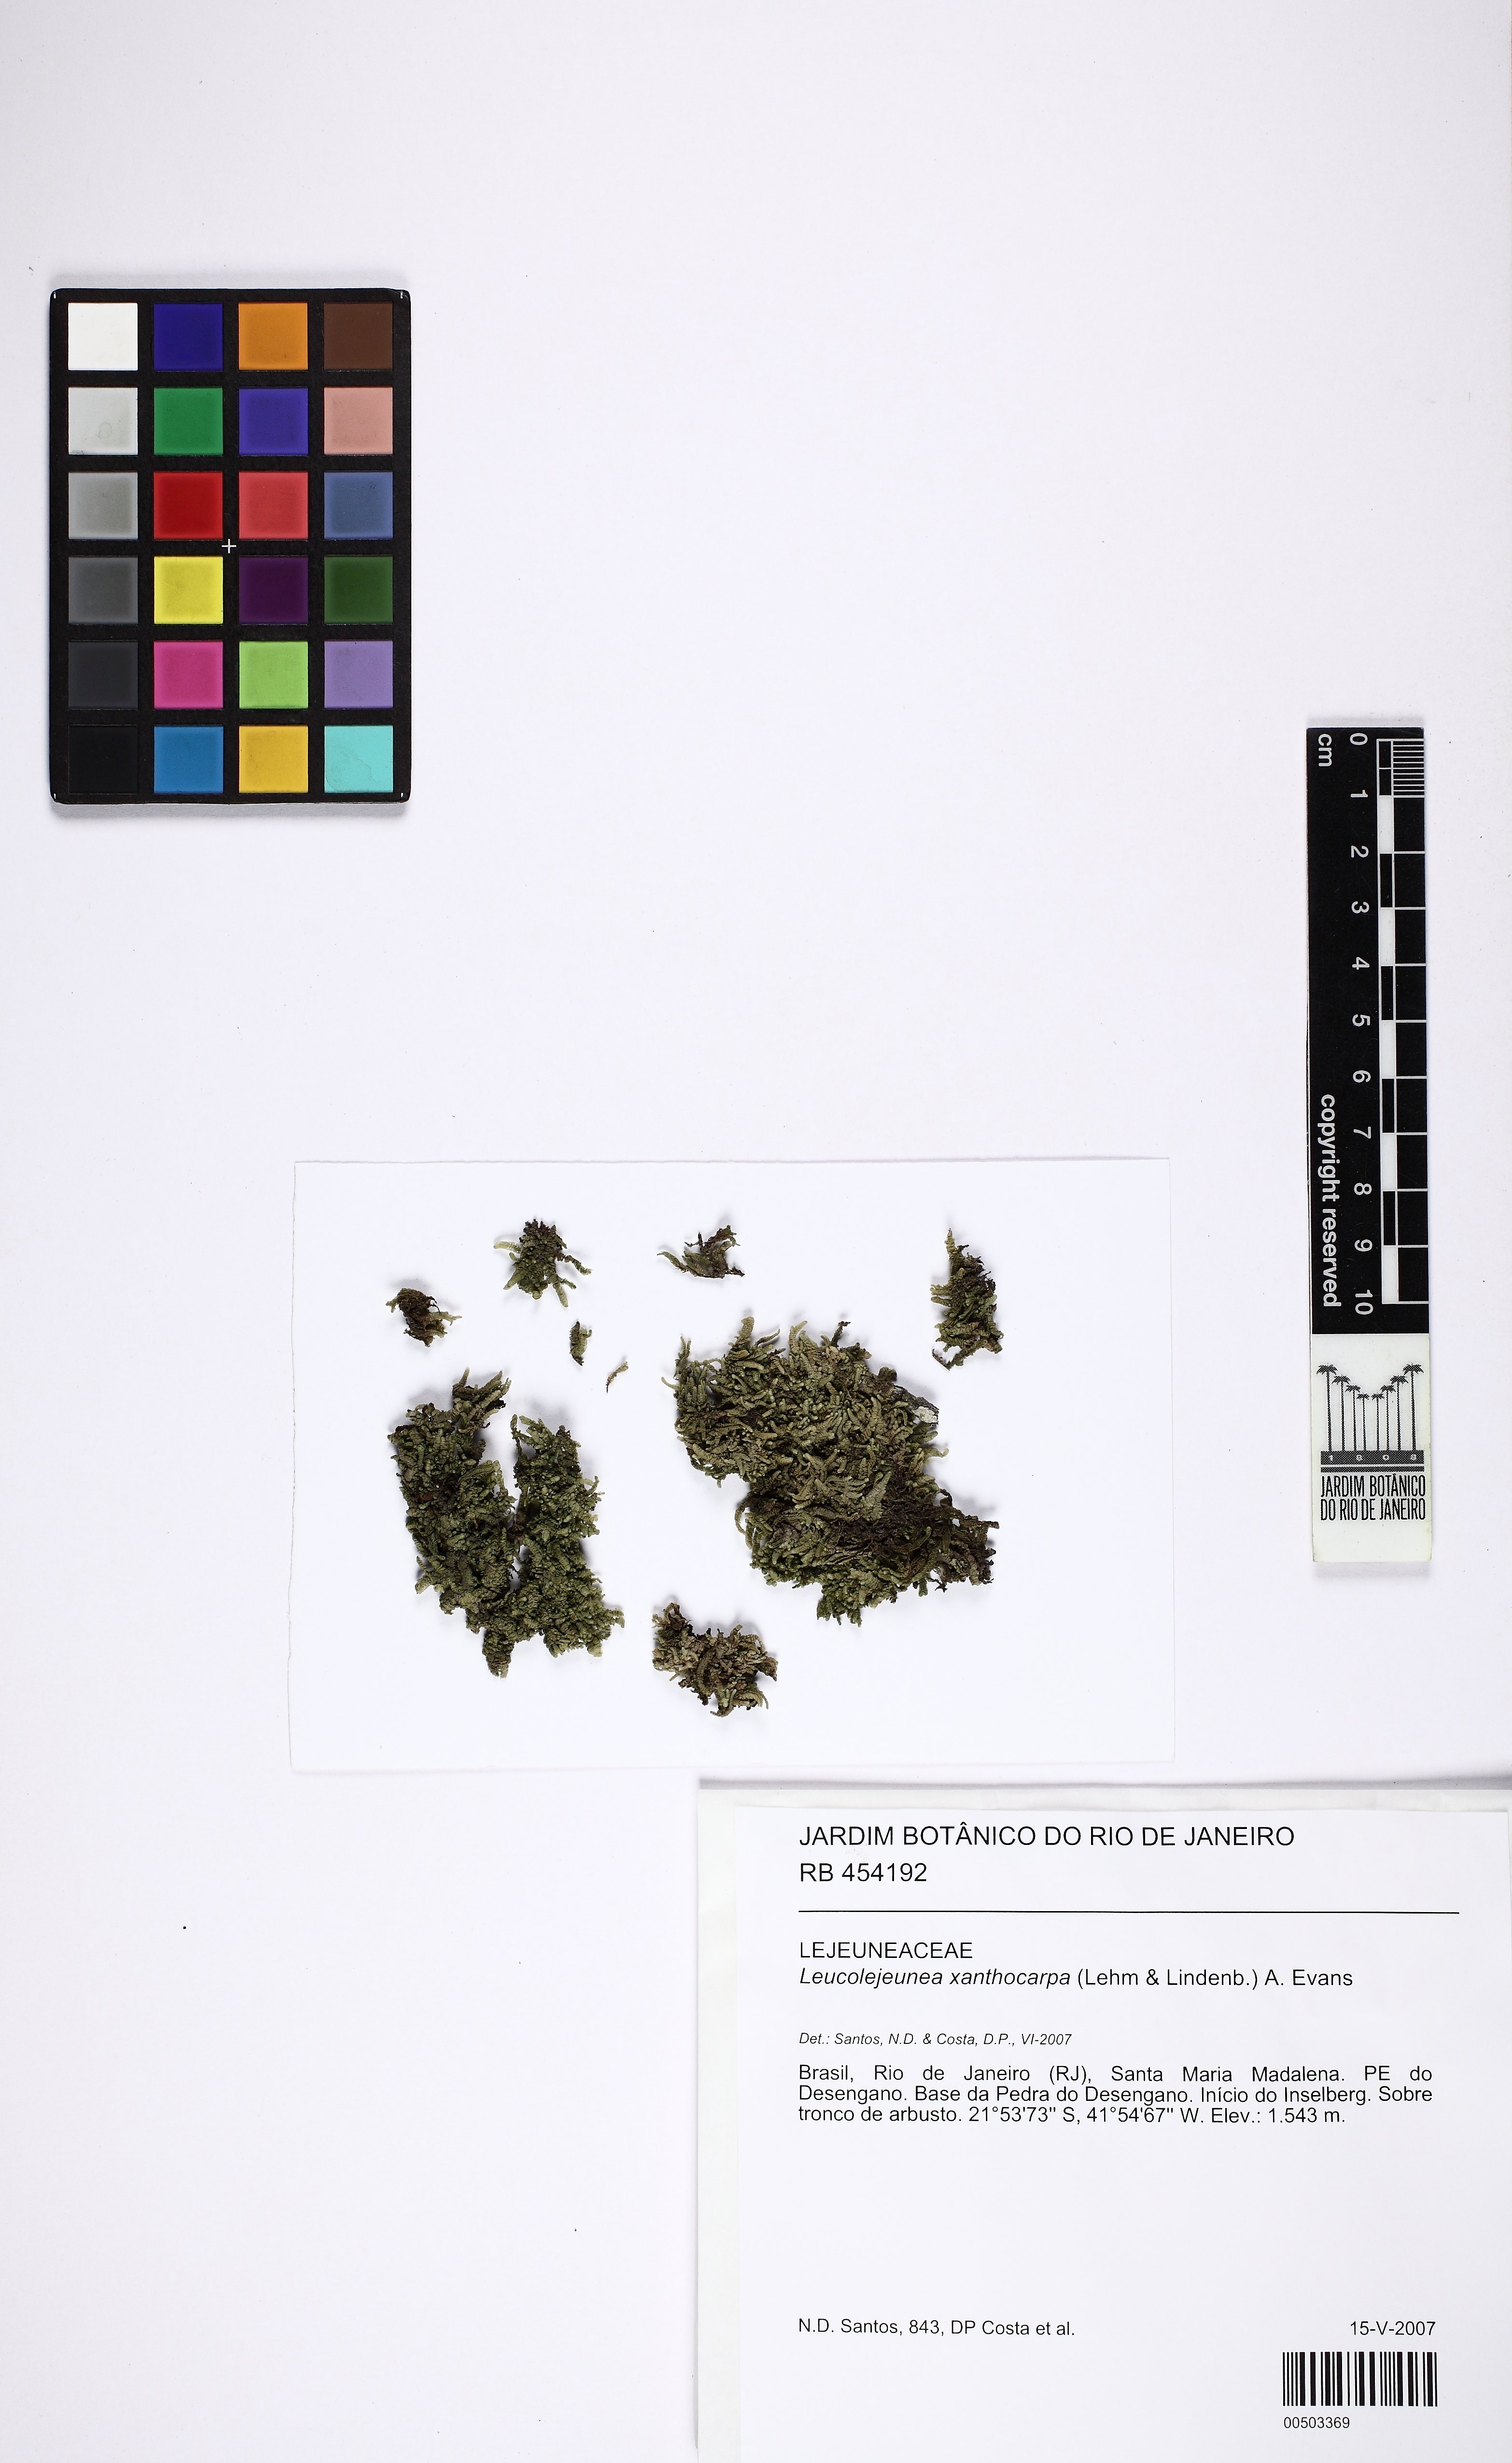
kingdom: Plantae
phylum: Marchantiophyta
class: Jungermanniopsida
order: Porellales
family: Lejeuneaceae
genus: Cheilolejeunea
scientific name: Cheilolejeunea xanthocarpa
